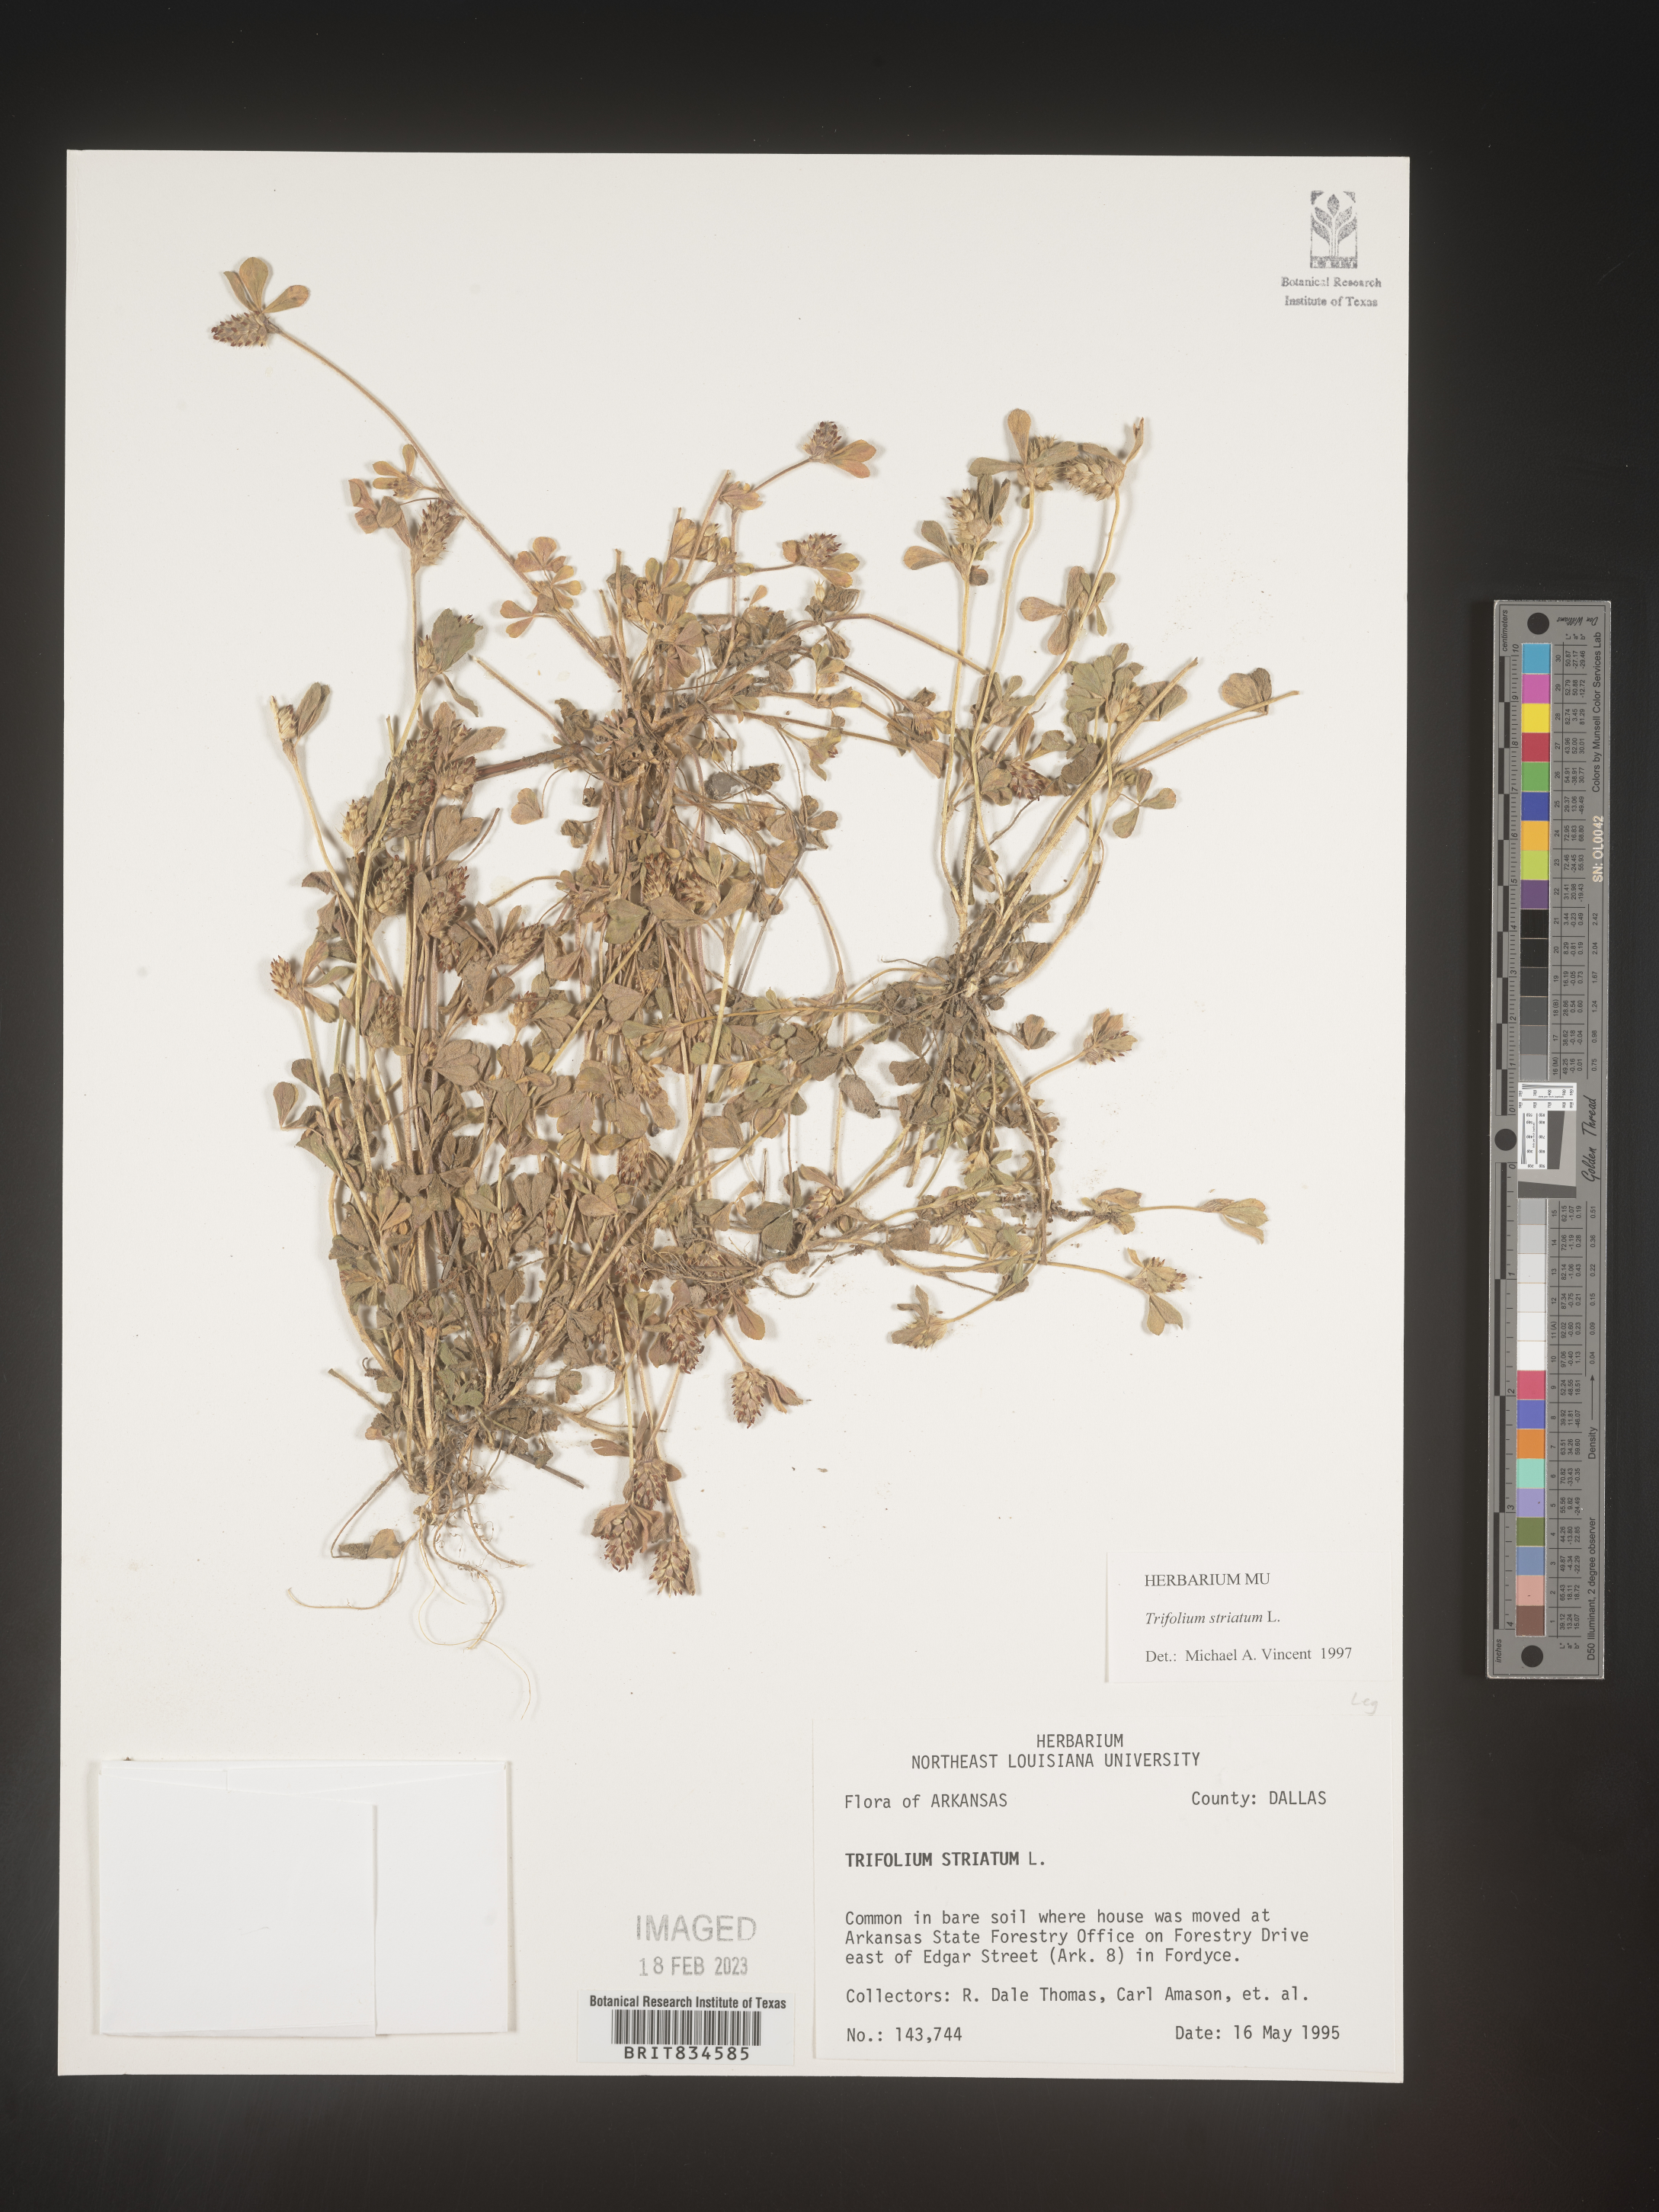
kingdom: Plantae
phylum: Tracheophyta
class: Magnoliopsida
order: Fabales
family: Fabaceae
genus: Trifolium
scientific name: Trifolium
